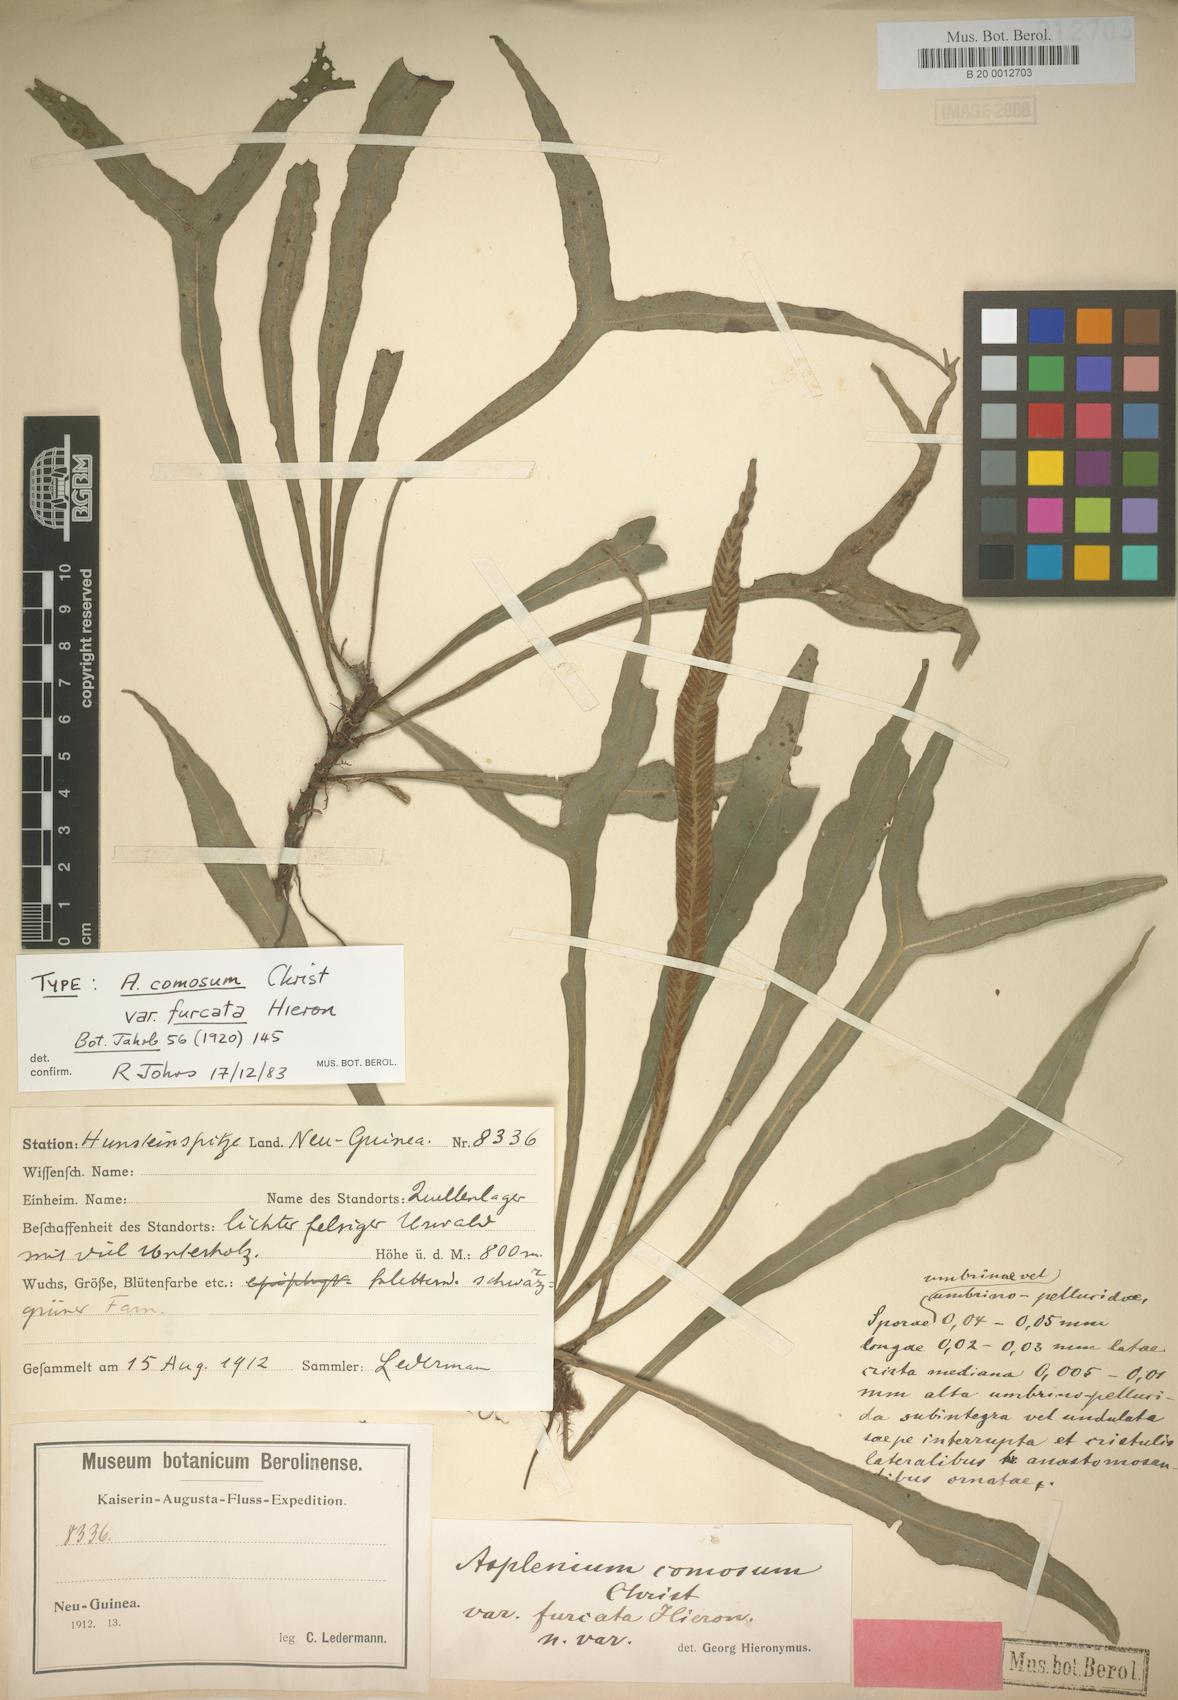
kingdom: Plantae
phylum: Tracheophyta
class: Polypodiopsida
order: Polypodiales
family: Aspleniaceae
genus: Asplenium
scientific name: Asplenium comosum
